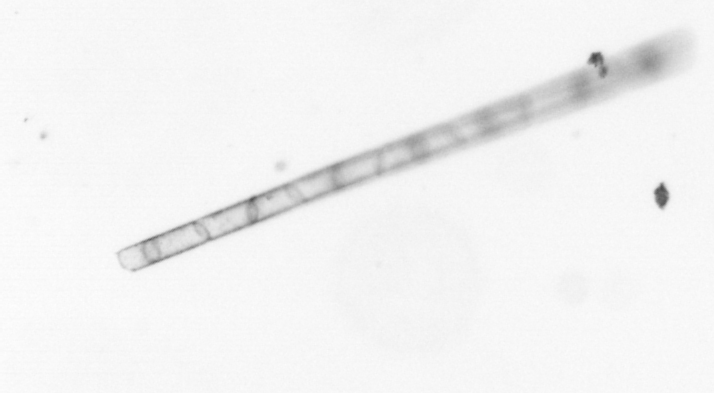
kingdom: Chromista
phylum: Ochrophyta
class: Bacillariophyceae
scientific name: Bacillariophyceae
